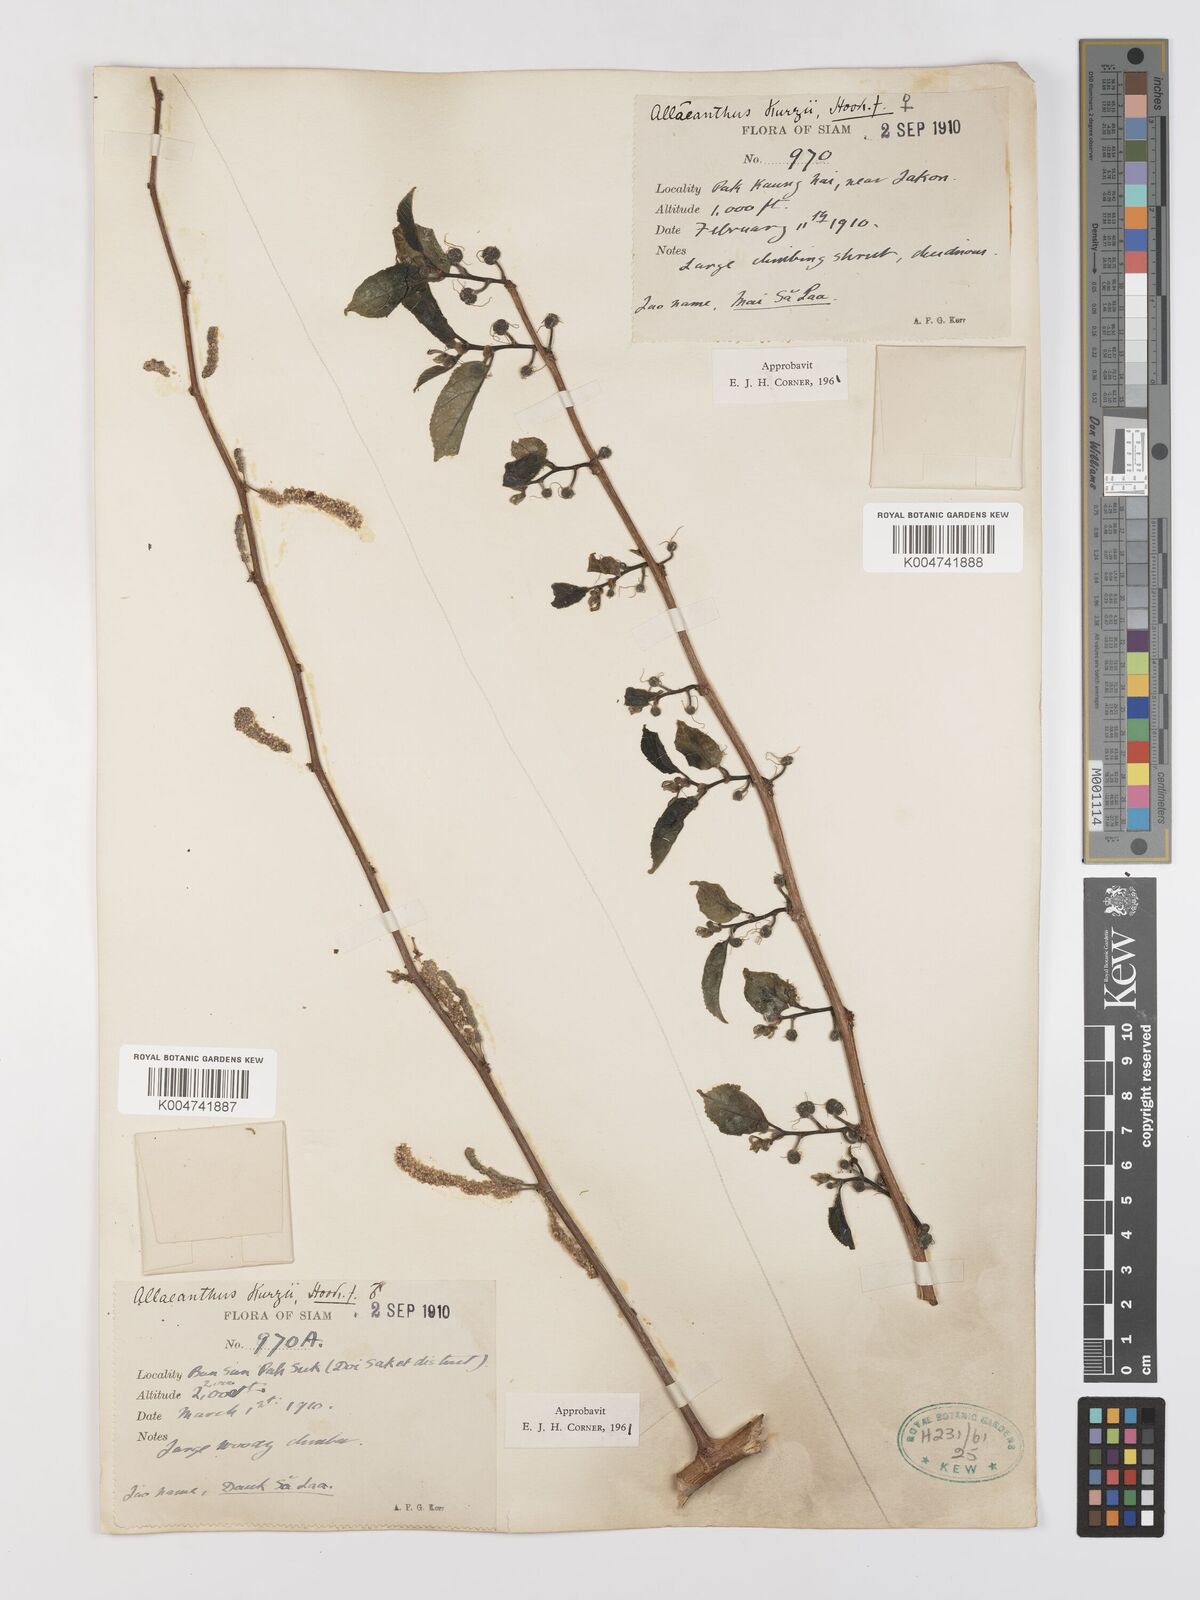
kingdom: Plantae
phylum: Tracheophyta
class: Magnoliopsida
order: Rosales
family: Moraceae
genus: Allaeanthus
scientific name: Allaeanthus kurzii
